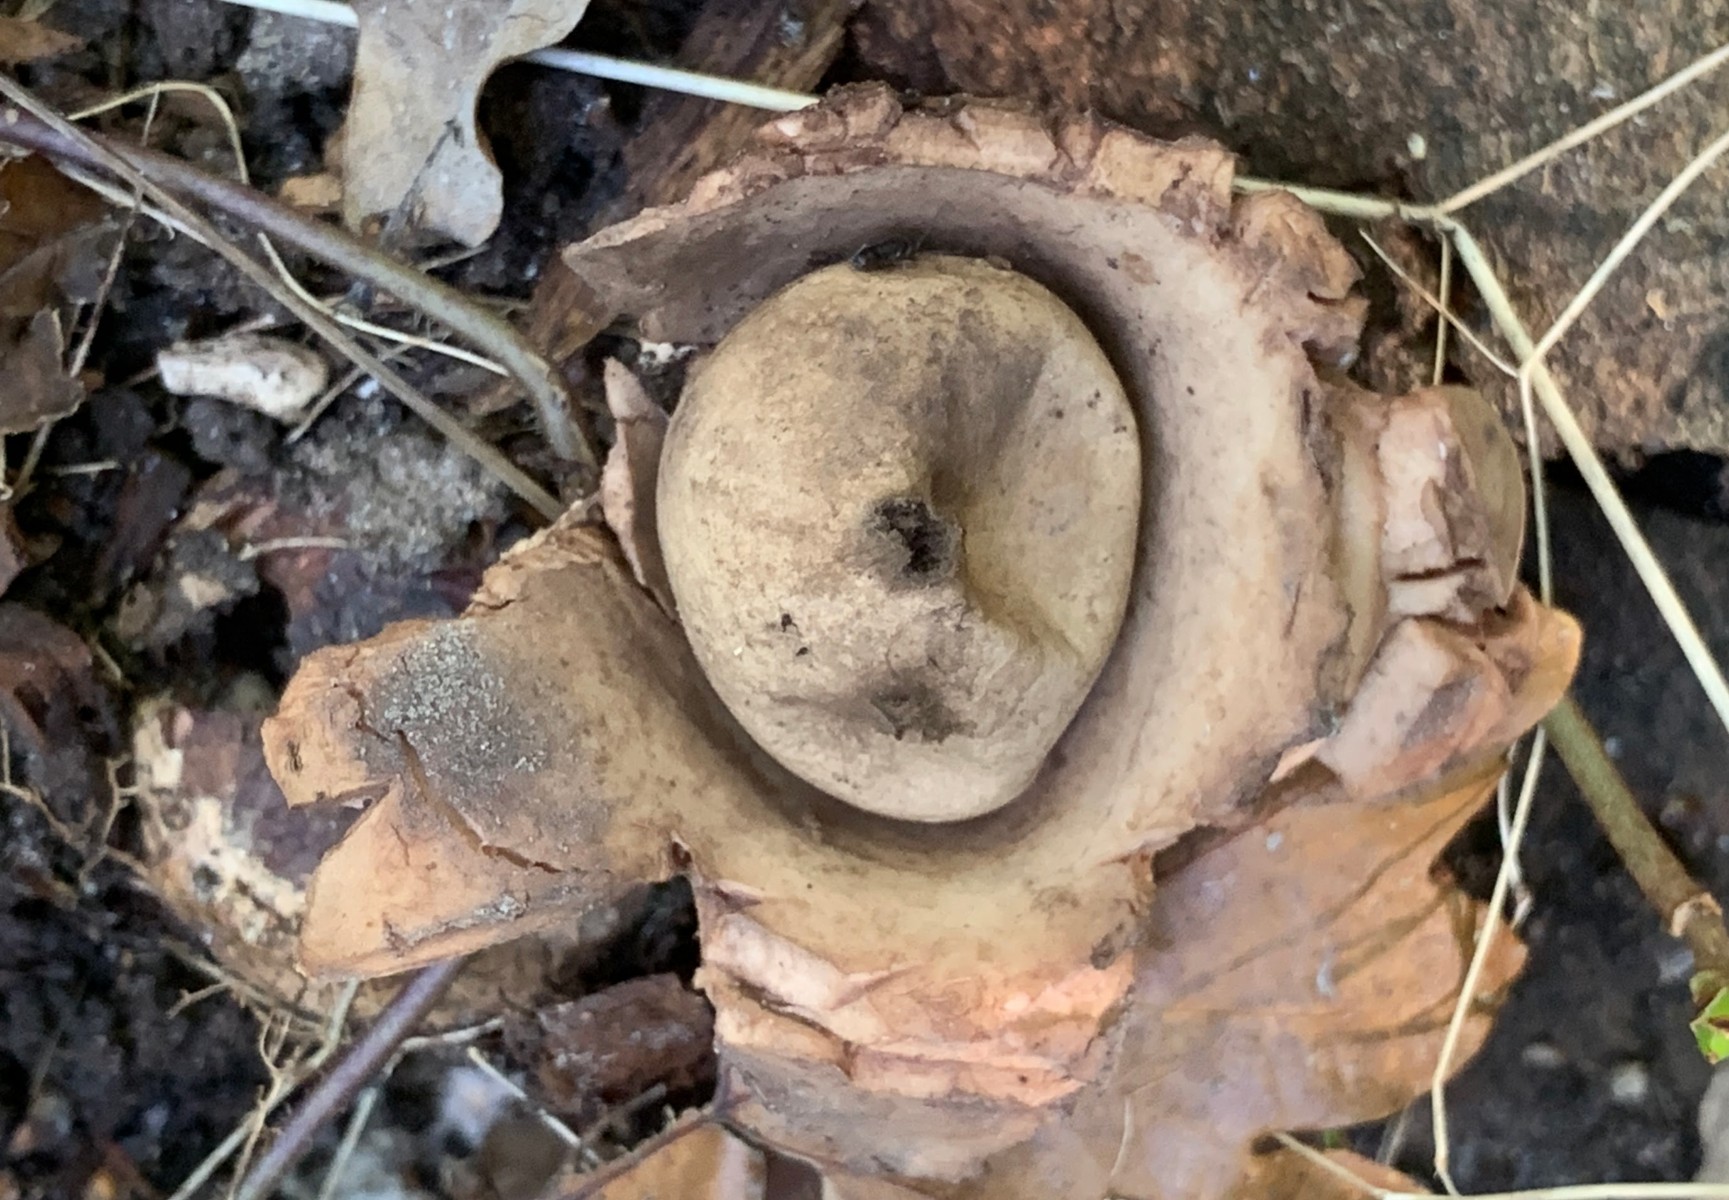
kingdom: Fungi
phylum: Basidiomycota
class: Agaricomycetes
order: Geastrales
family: Geastraceae
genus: Geastrum
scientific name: Geastrum michelianum
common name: kødet stjernebold
